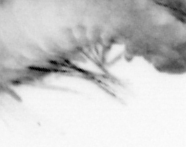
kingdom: Animalia
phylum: Annelida
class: Polychaeta
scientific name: Polychaeta
